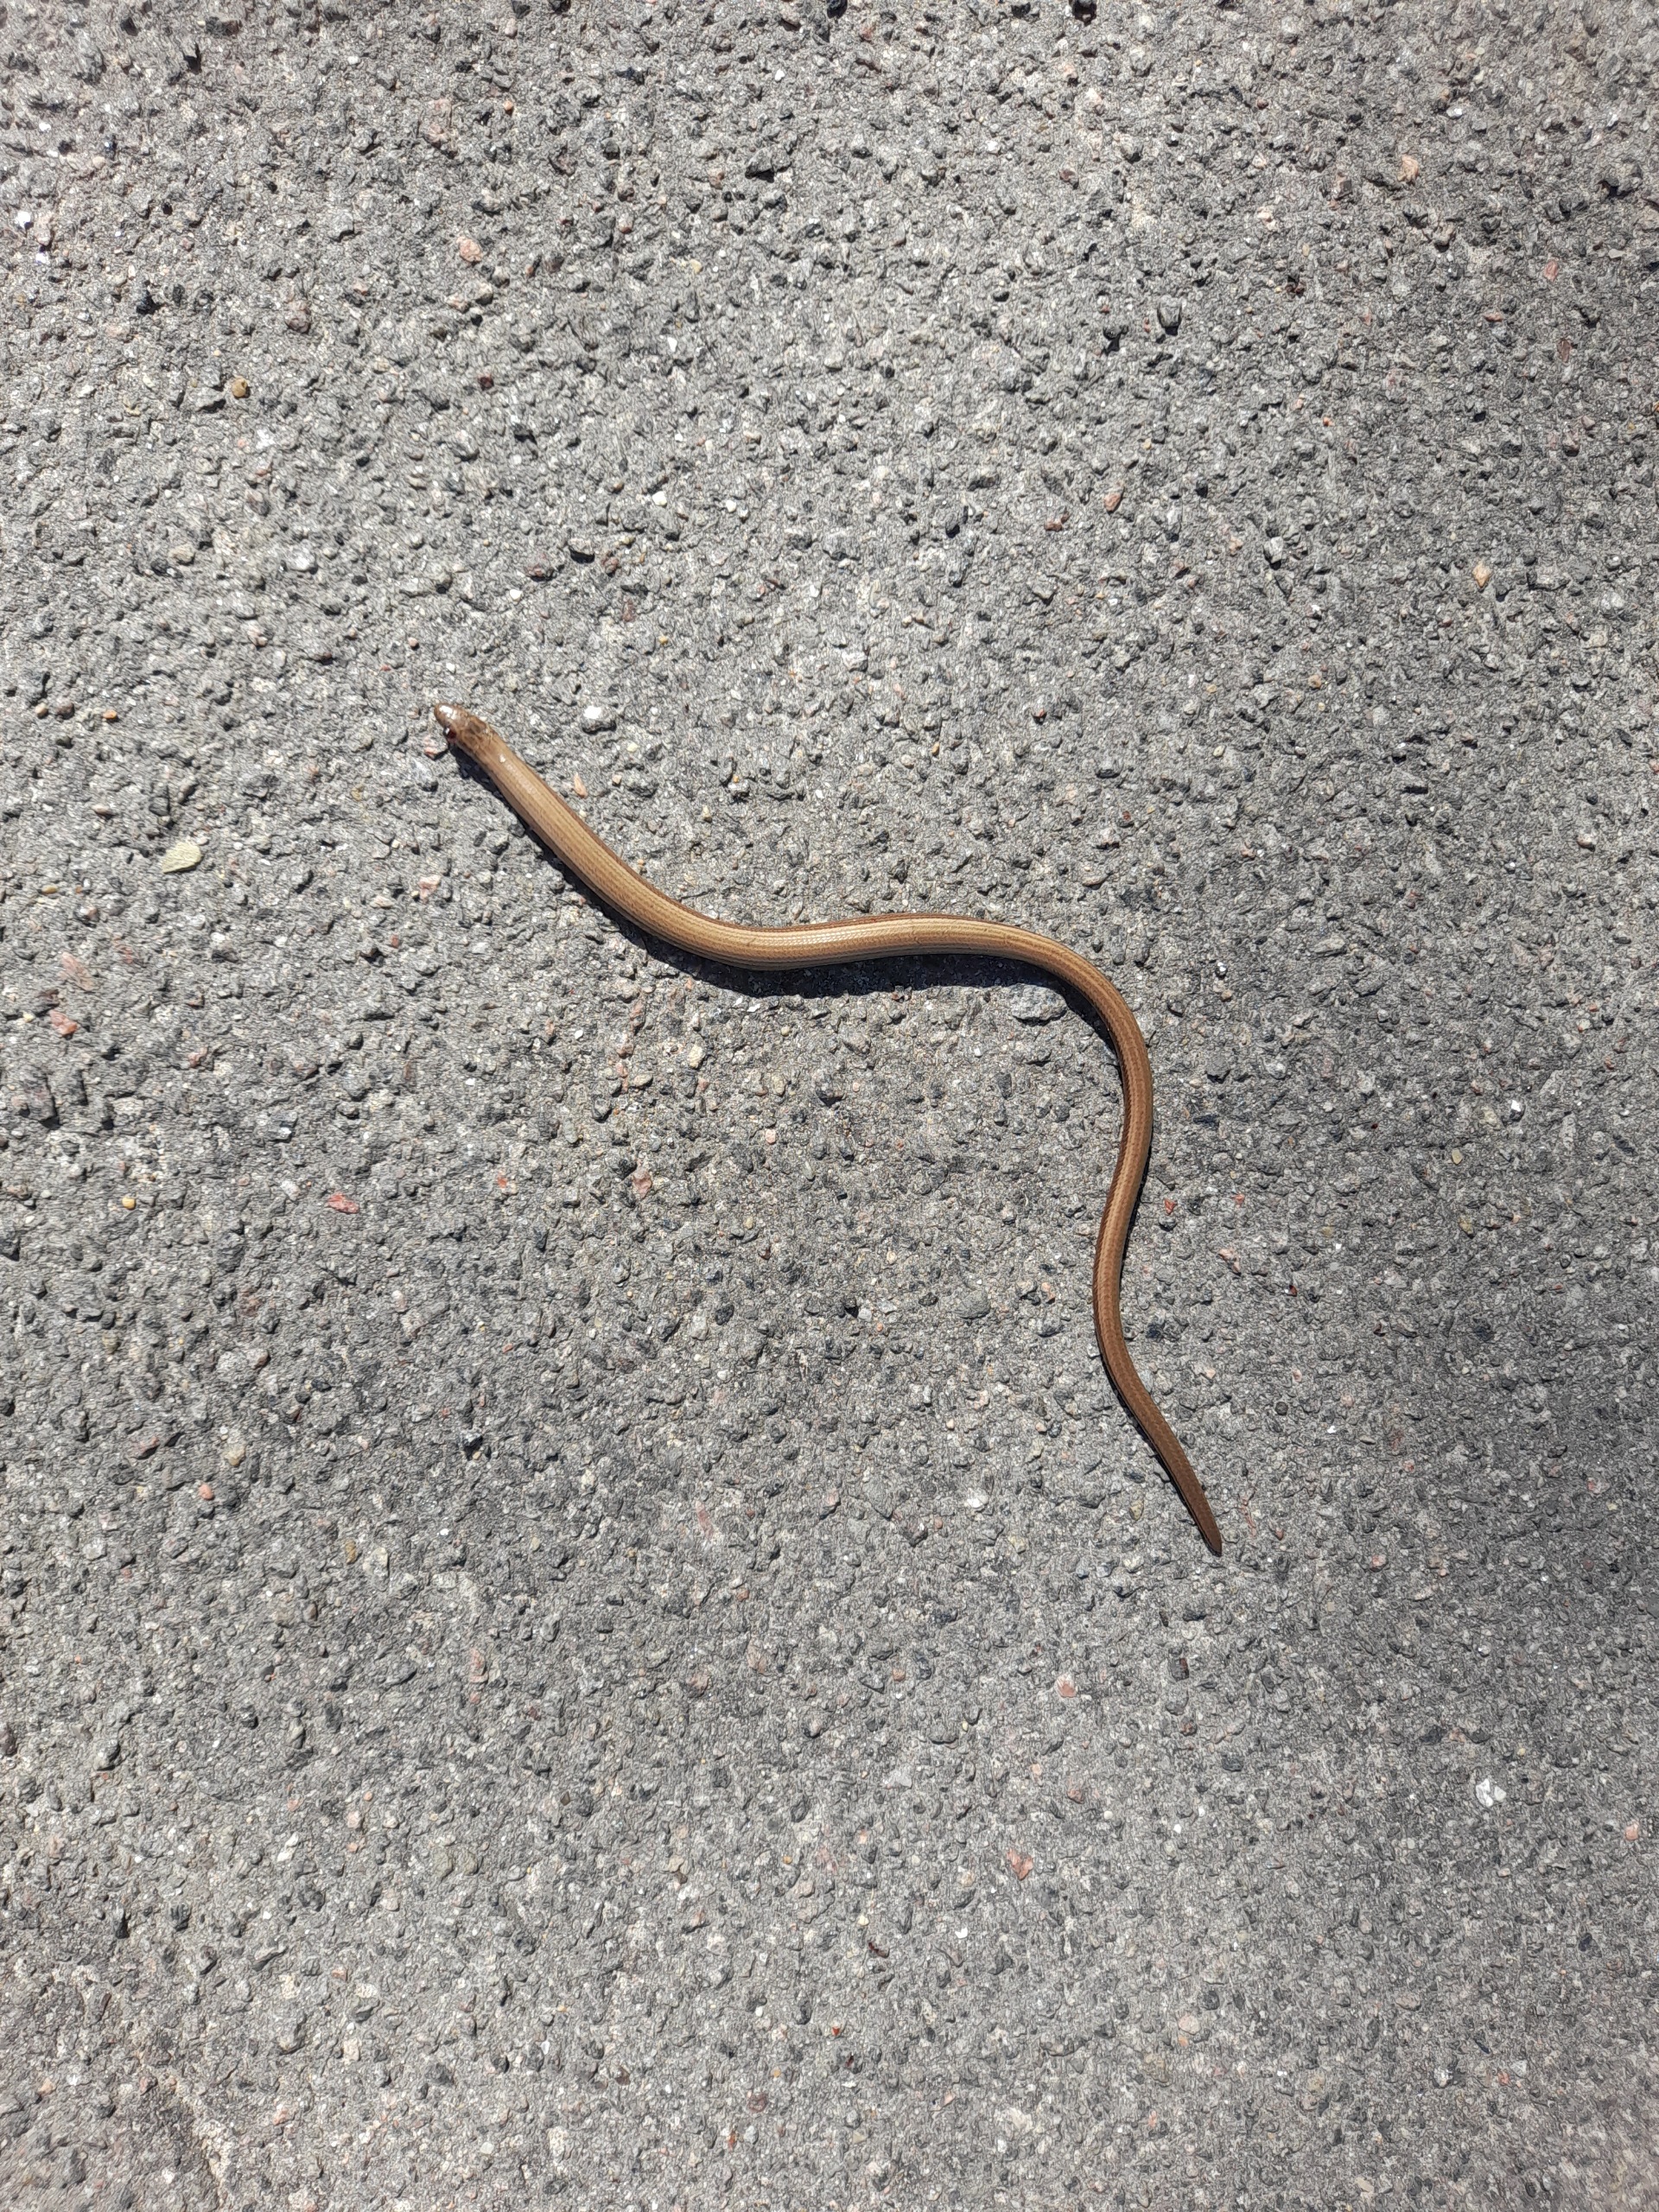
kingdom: Animalia
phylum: Chordata
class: Squamata
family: Anguidae
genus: Anguis
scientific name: Anguis fragilis
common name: Stålorm
